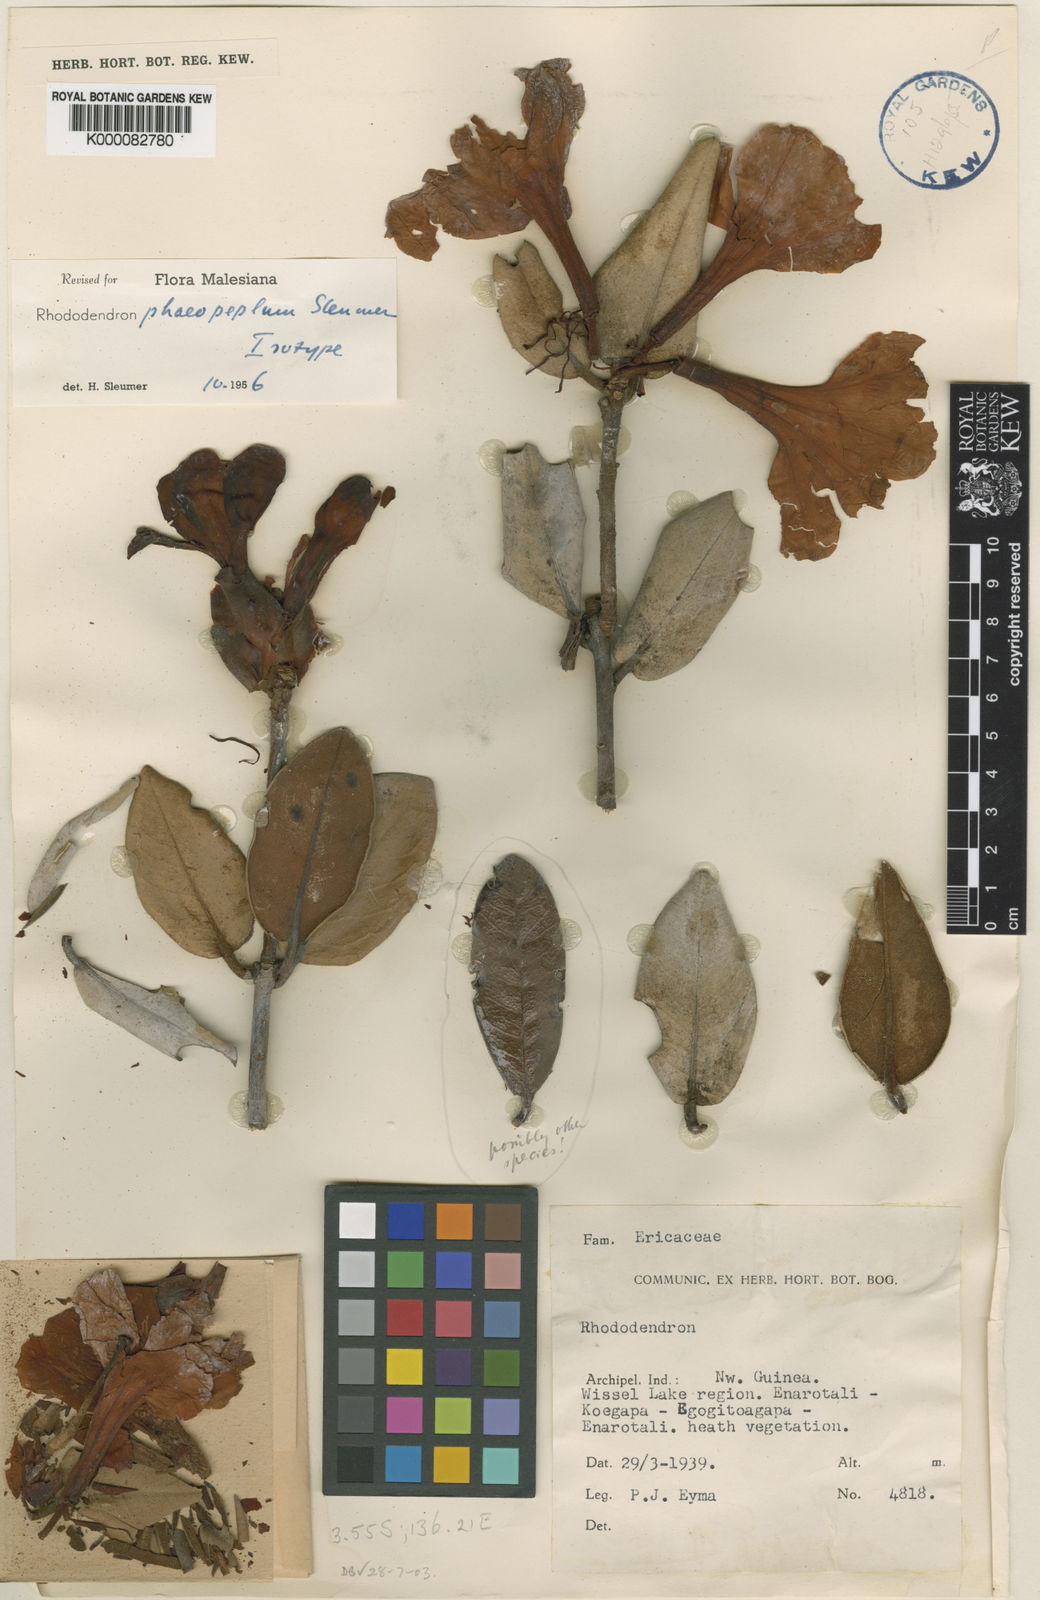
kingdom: Plantae
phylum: Tracheophyta
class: Magnoliopsida
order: Ericales
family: Ericaceae
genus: Rhododendron
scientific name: Rhododendron konori
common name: Konor rhododendron
